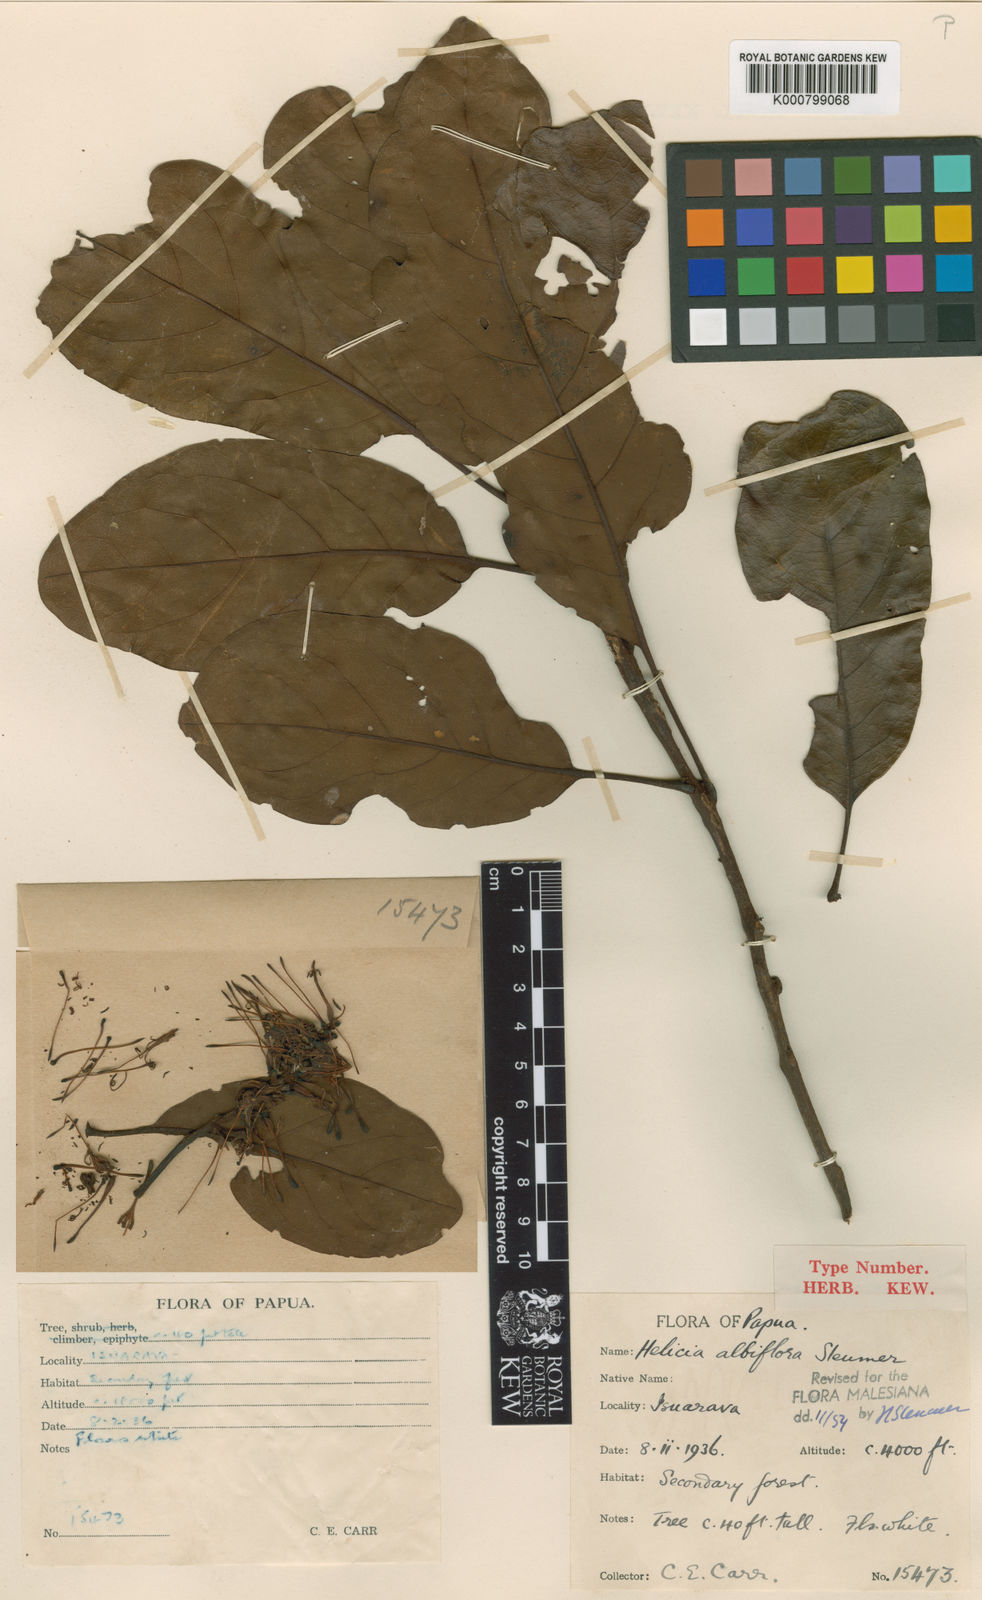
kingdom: Plantae
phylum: Tracheophyta
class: Magnoliopsida
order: Proteales
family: Proteaceae
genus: Helicia
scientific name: Helicia albiflora
